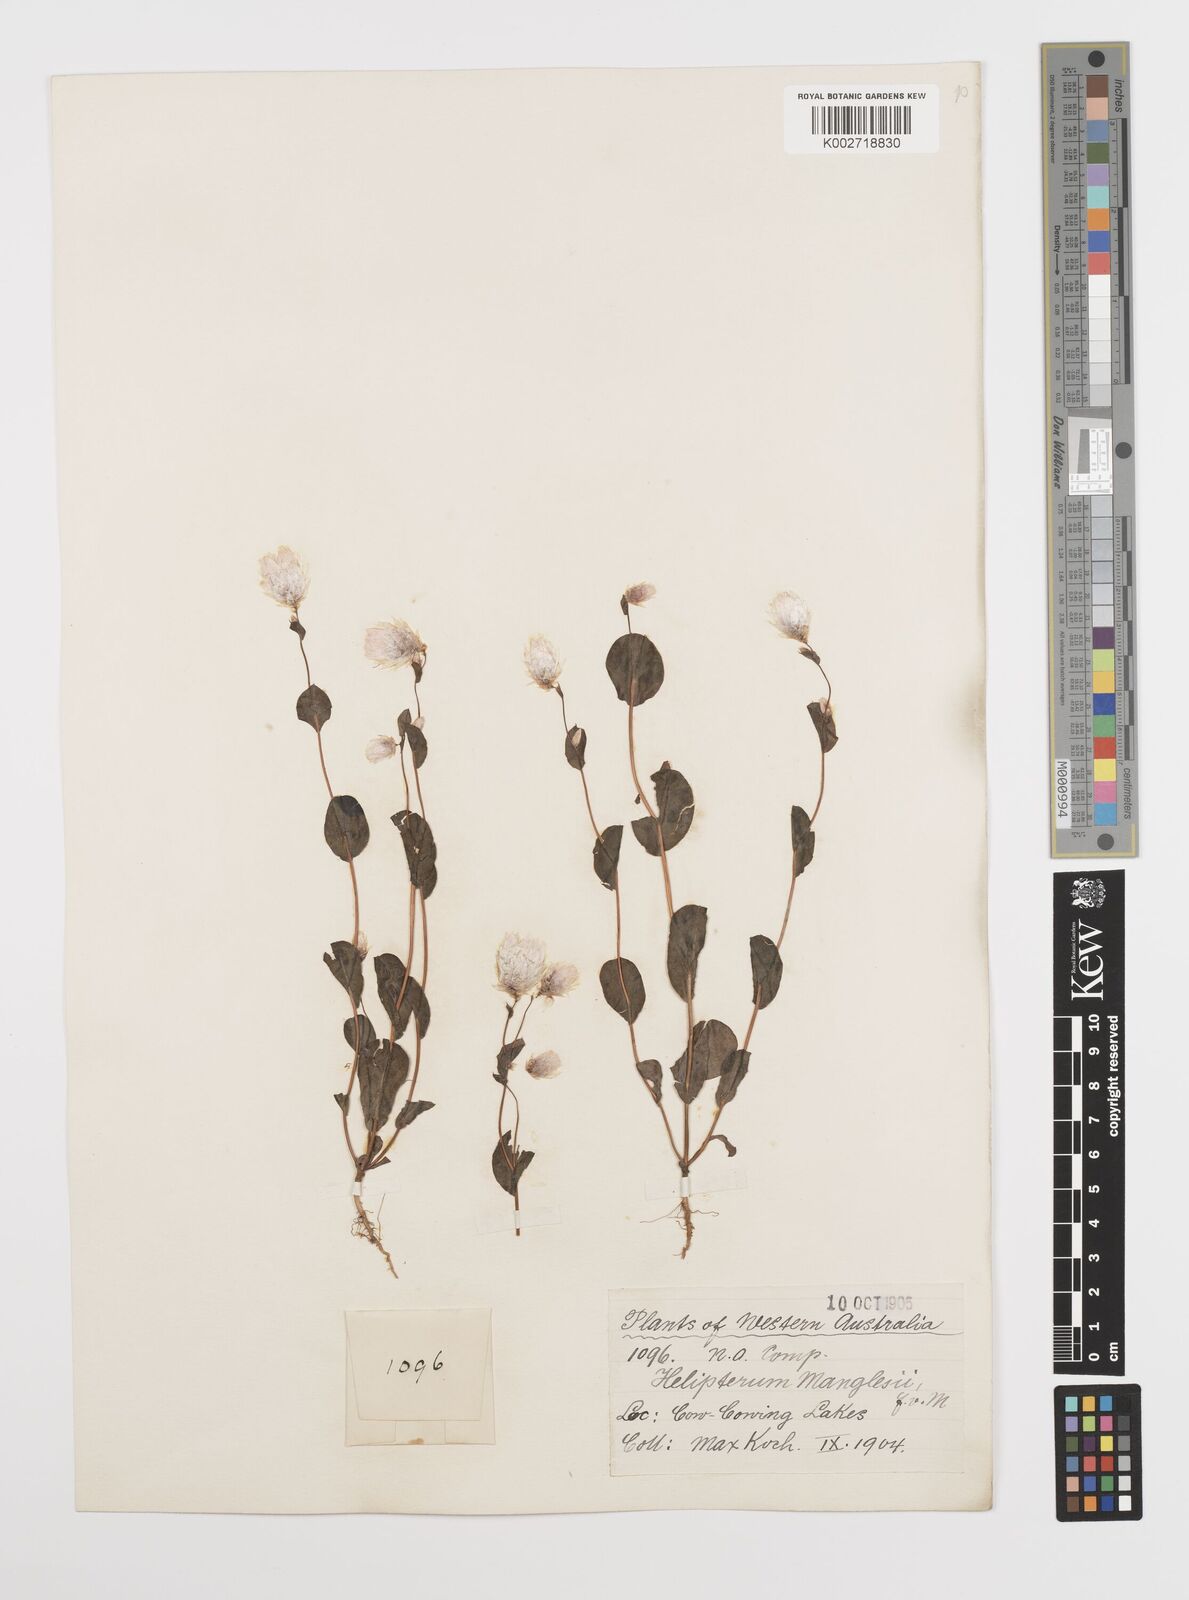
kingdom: Plantae
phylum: Tracheophyta
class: Magnoliopsida
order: Asterales
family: Asteraceae
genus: Rhodanthe
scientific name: Rhodanthe manglesii
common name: Pink sunray
